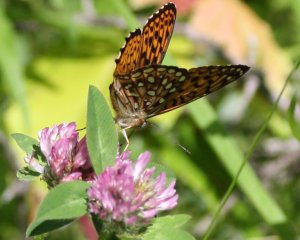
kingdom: Animalia
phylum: Arthropoda
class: Insecta
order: Lepidoptera
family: Nymphalidae
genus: Speyeria
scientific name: Speyeria cybele
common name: Great Spangled Fritillary
